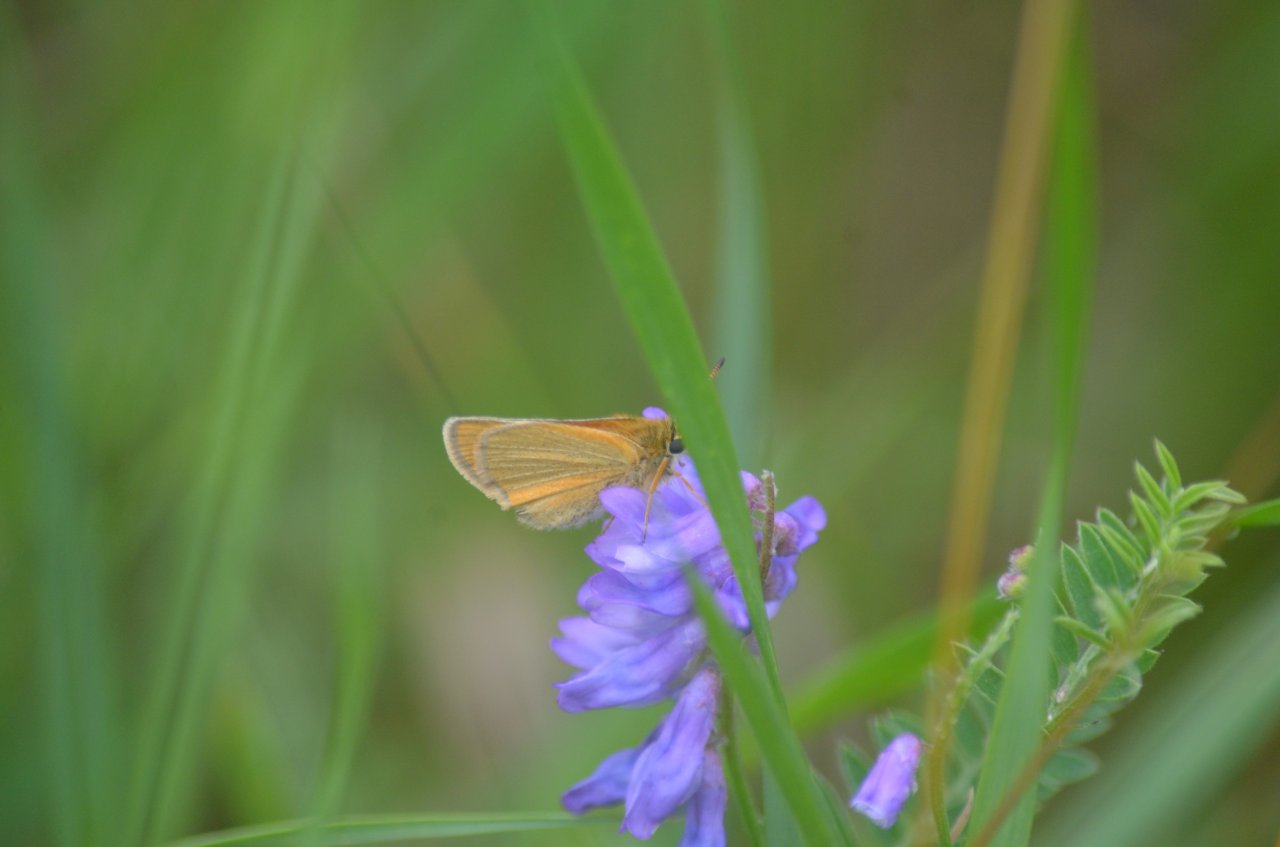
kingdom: Animalia
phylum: Arthropoda
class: Insecta
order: Lepidoptera
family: Hesperiidae
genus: Thymelicus
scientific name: Thymelicus lineola
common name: European Skipper
